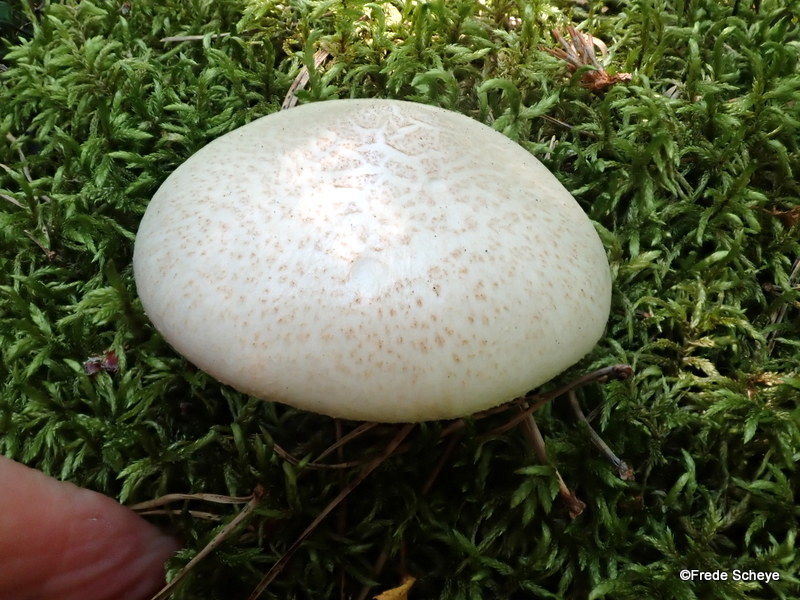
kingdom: Fungi
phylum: Basidiomycota
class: Agaricomycetes
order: Gloeophyllales
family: Gloeophyllaceae
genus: Neolentinus
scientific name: Neolentinus lepideus
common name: skællet sejhat
